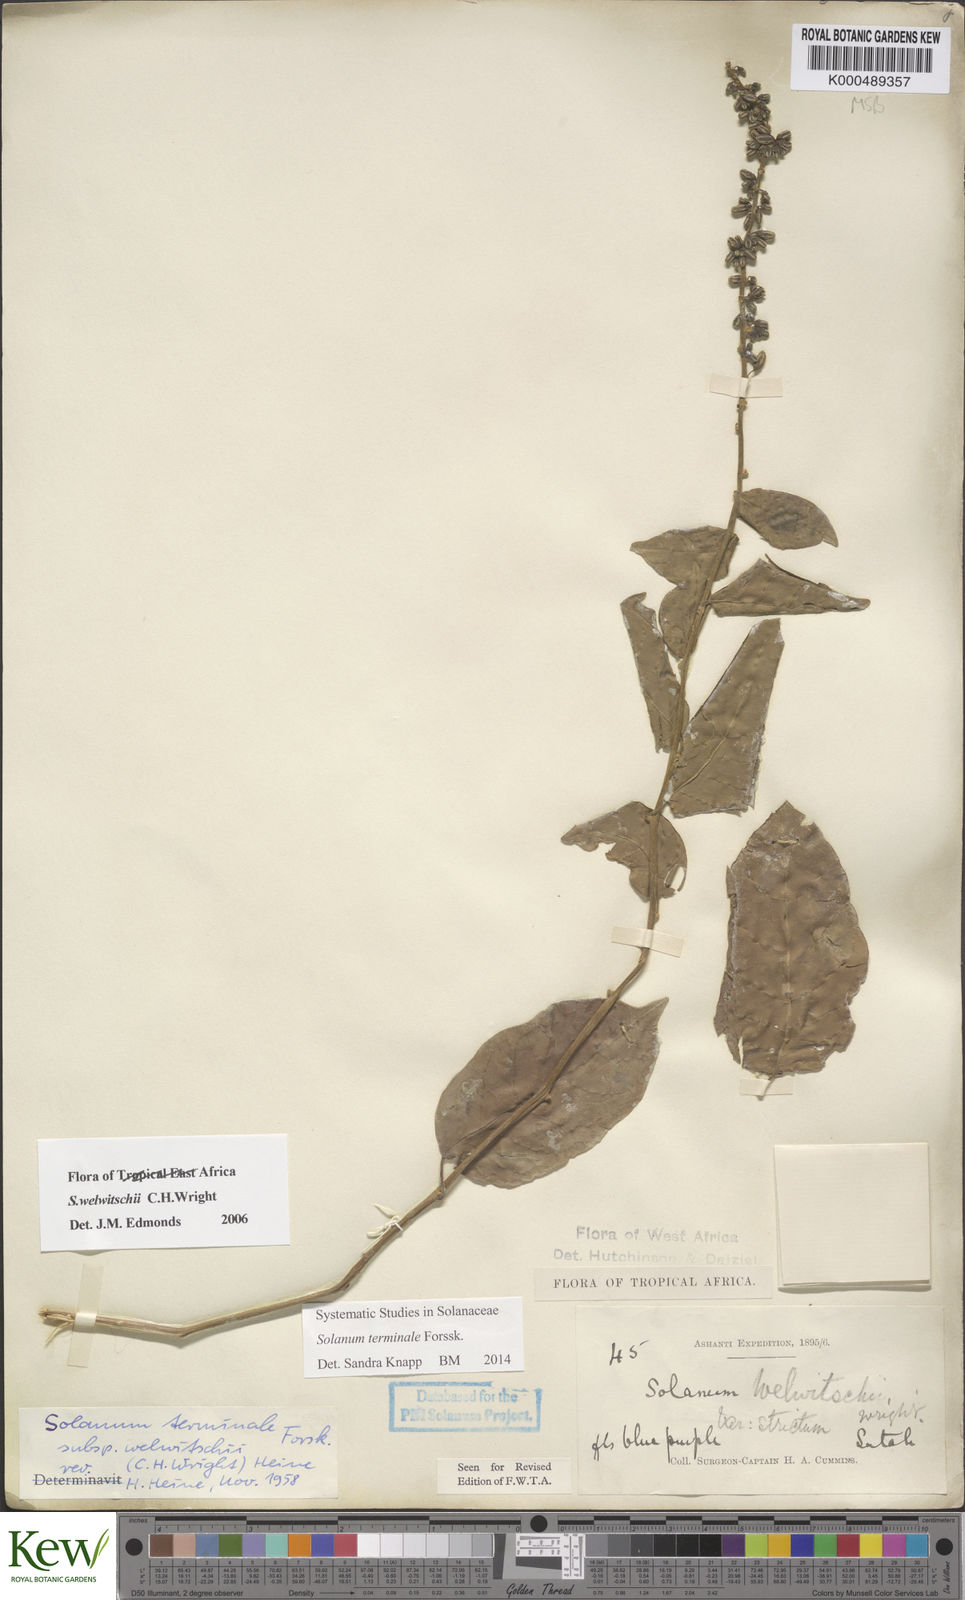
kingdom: Plantae
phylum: Tracheophyta
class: Magnoliopsida
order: Solanales
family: Solanaceae
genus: Solanum
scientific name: Solanum terminale
